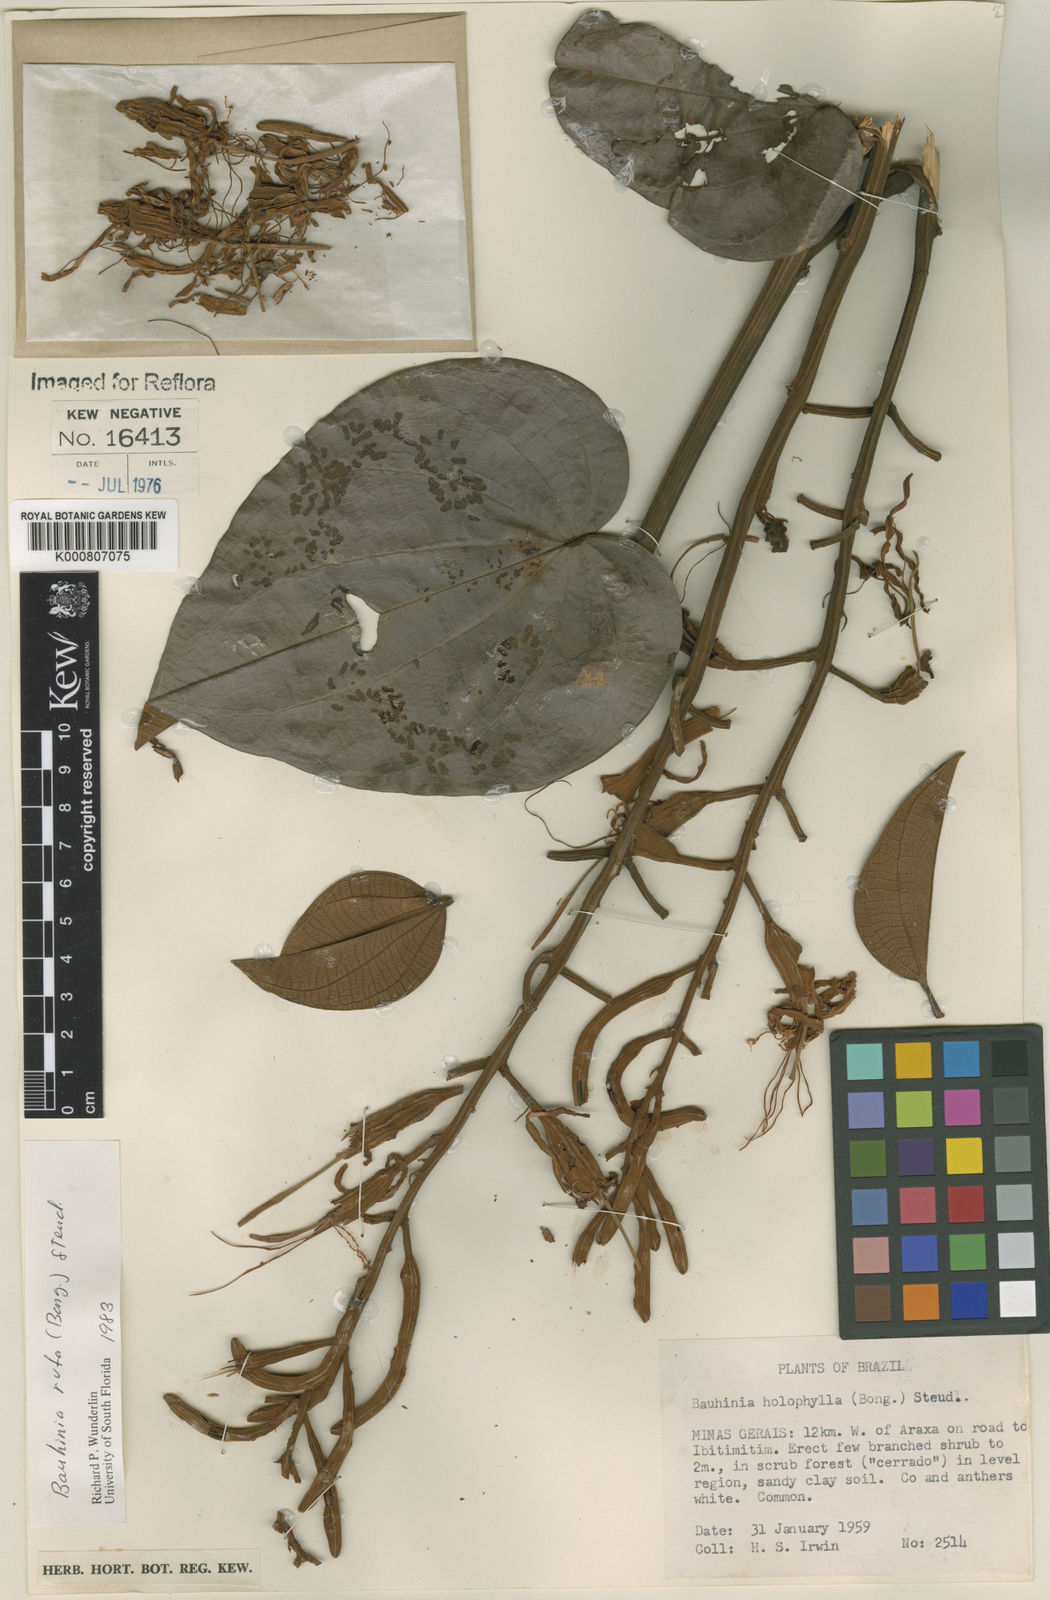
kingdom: Plantae
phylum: Tracheophyta
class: Magnoliopsida
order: Fabales
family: Fabaceae
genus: Bauhinia
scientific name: Bauhinia rufa
